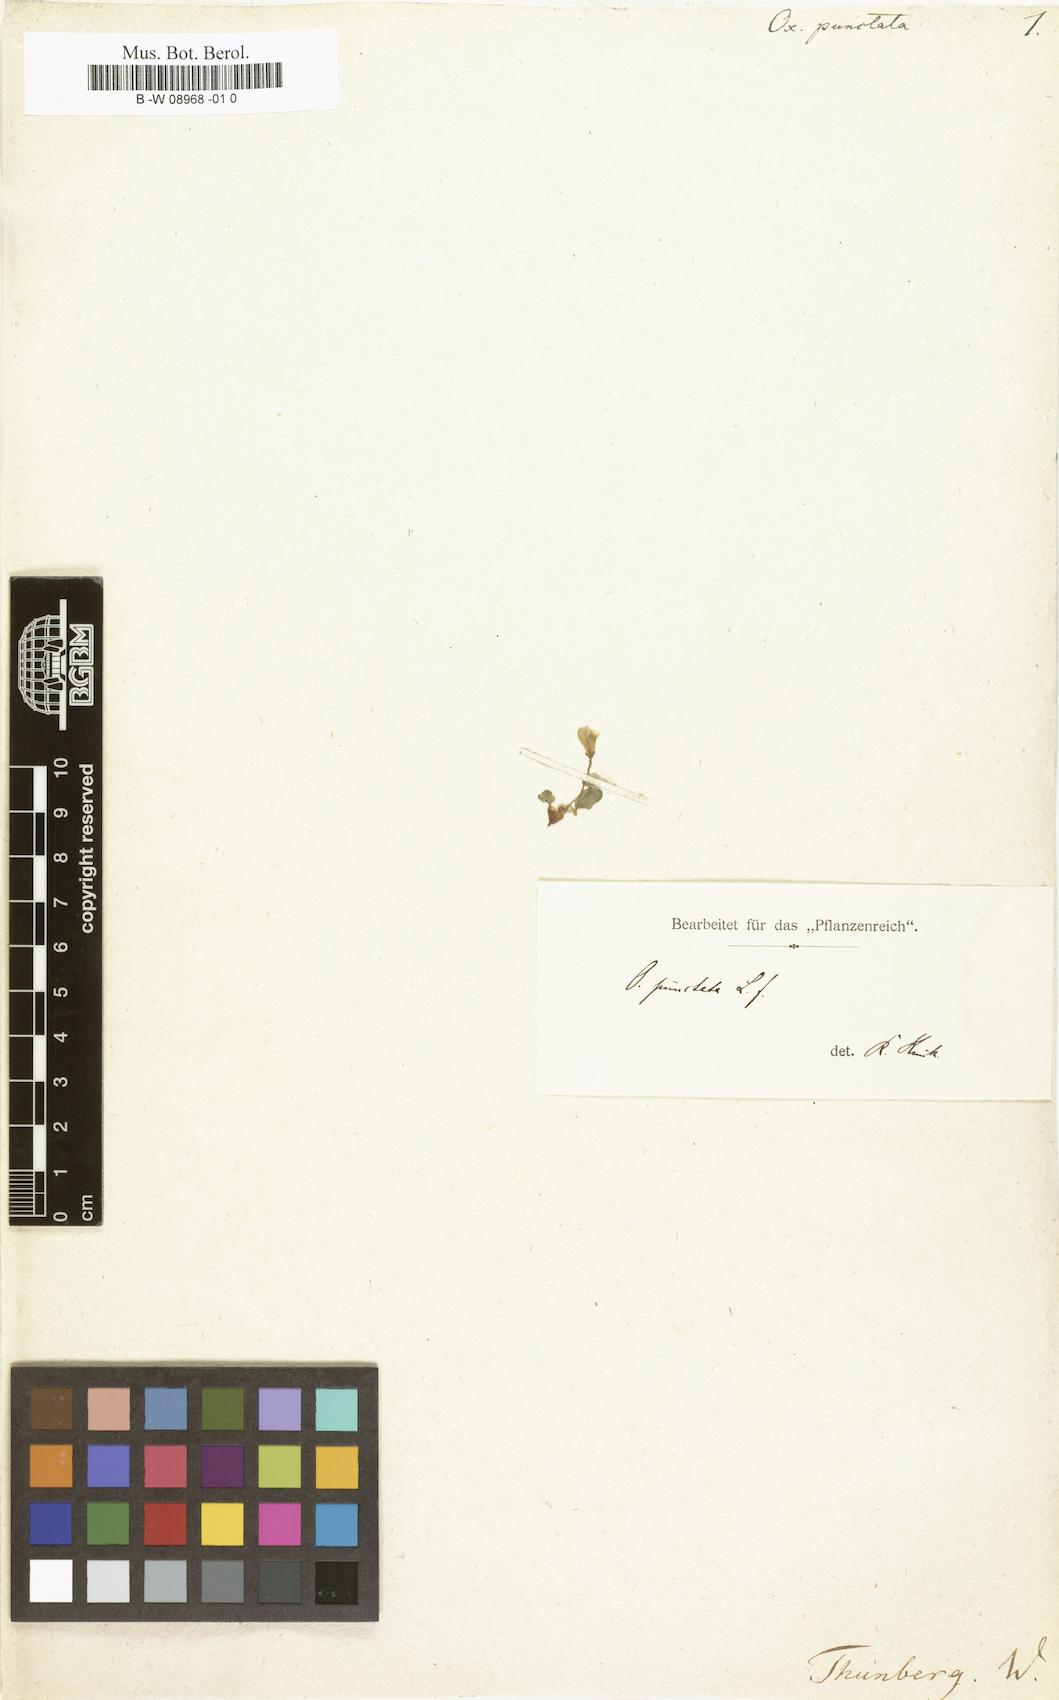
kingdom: Plantae
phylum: Tracheophyta
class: Magnoliopsida
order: Oxalidales
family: Oxalidaceae
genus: Oxalis
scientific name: Oxalis punctata
